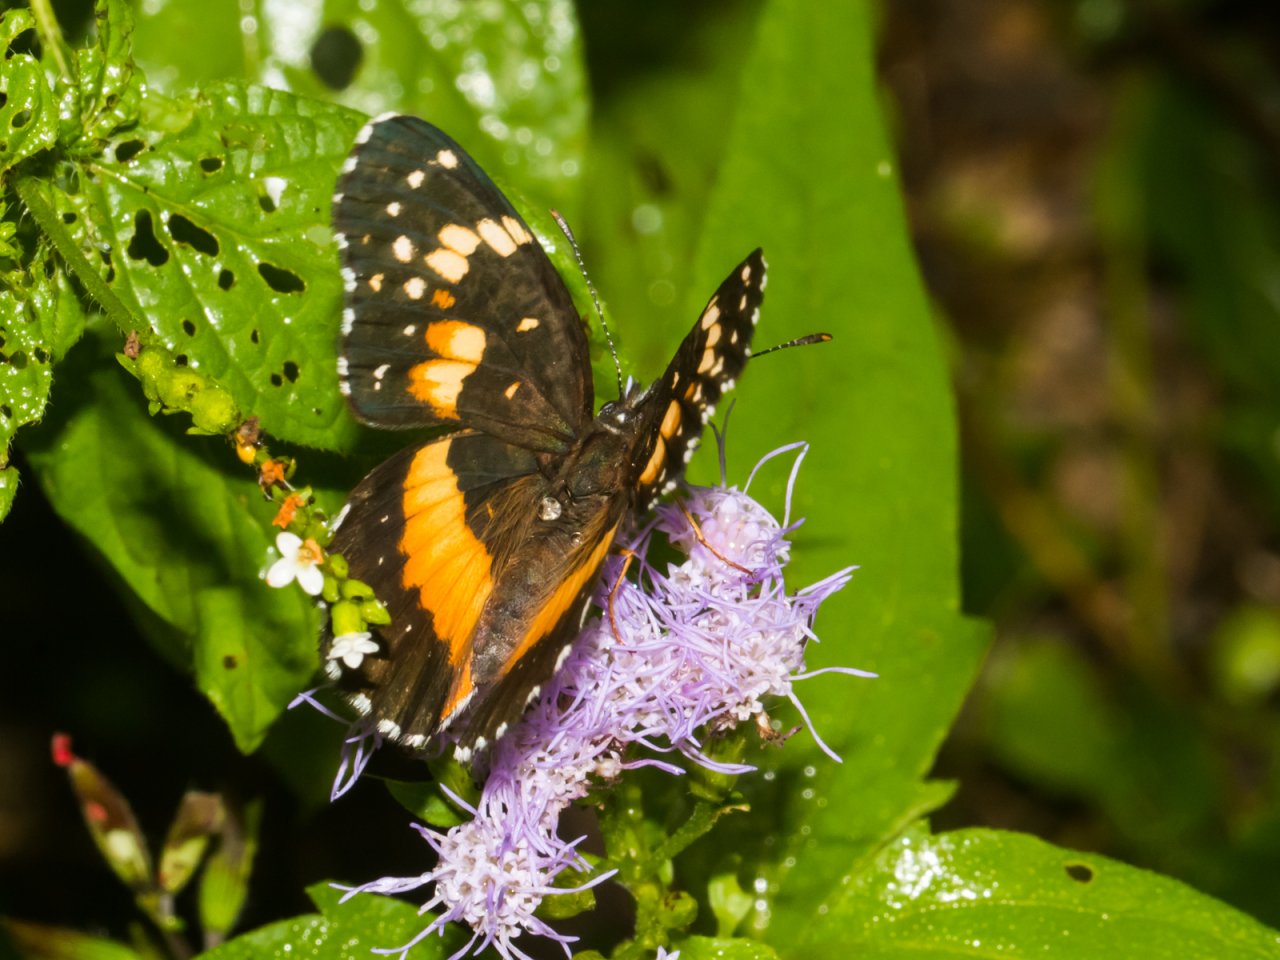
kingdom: Animalia
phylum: Arthropoda
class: Insecta
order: Lepidoptera
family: Nymphalidae
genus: Chlosyne
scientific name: Chlosyne lacinia
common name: Bordered Patch
